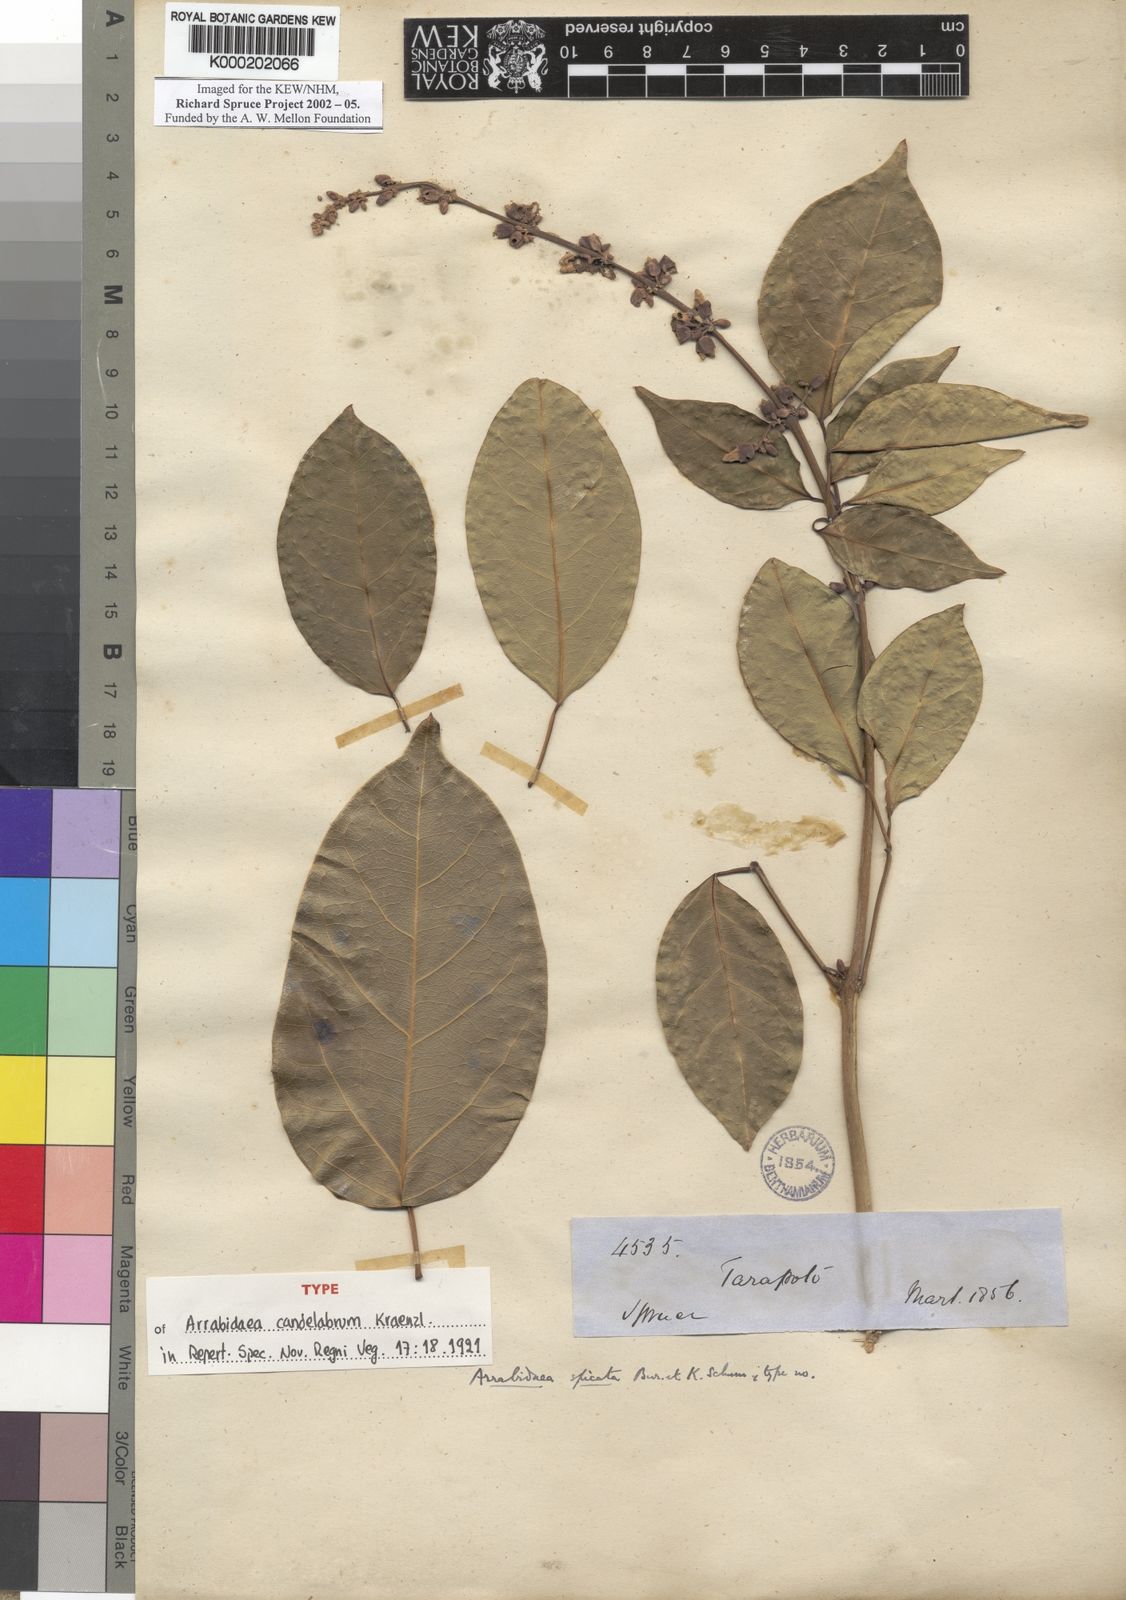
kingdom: Plantae
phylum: Tracheophyta
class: Magnoliopsida
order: Lamiales
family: Bignoniaceae
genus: Fridericia
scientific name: Fridericia spicata
